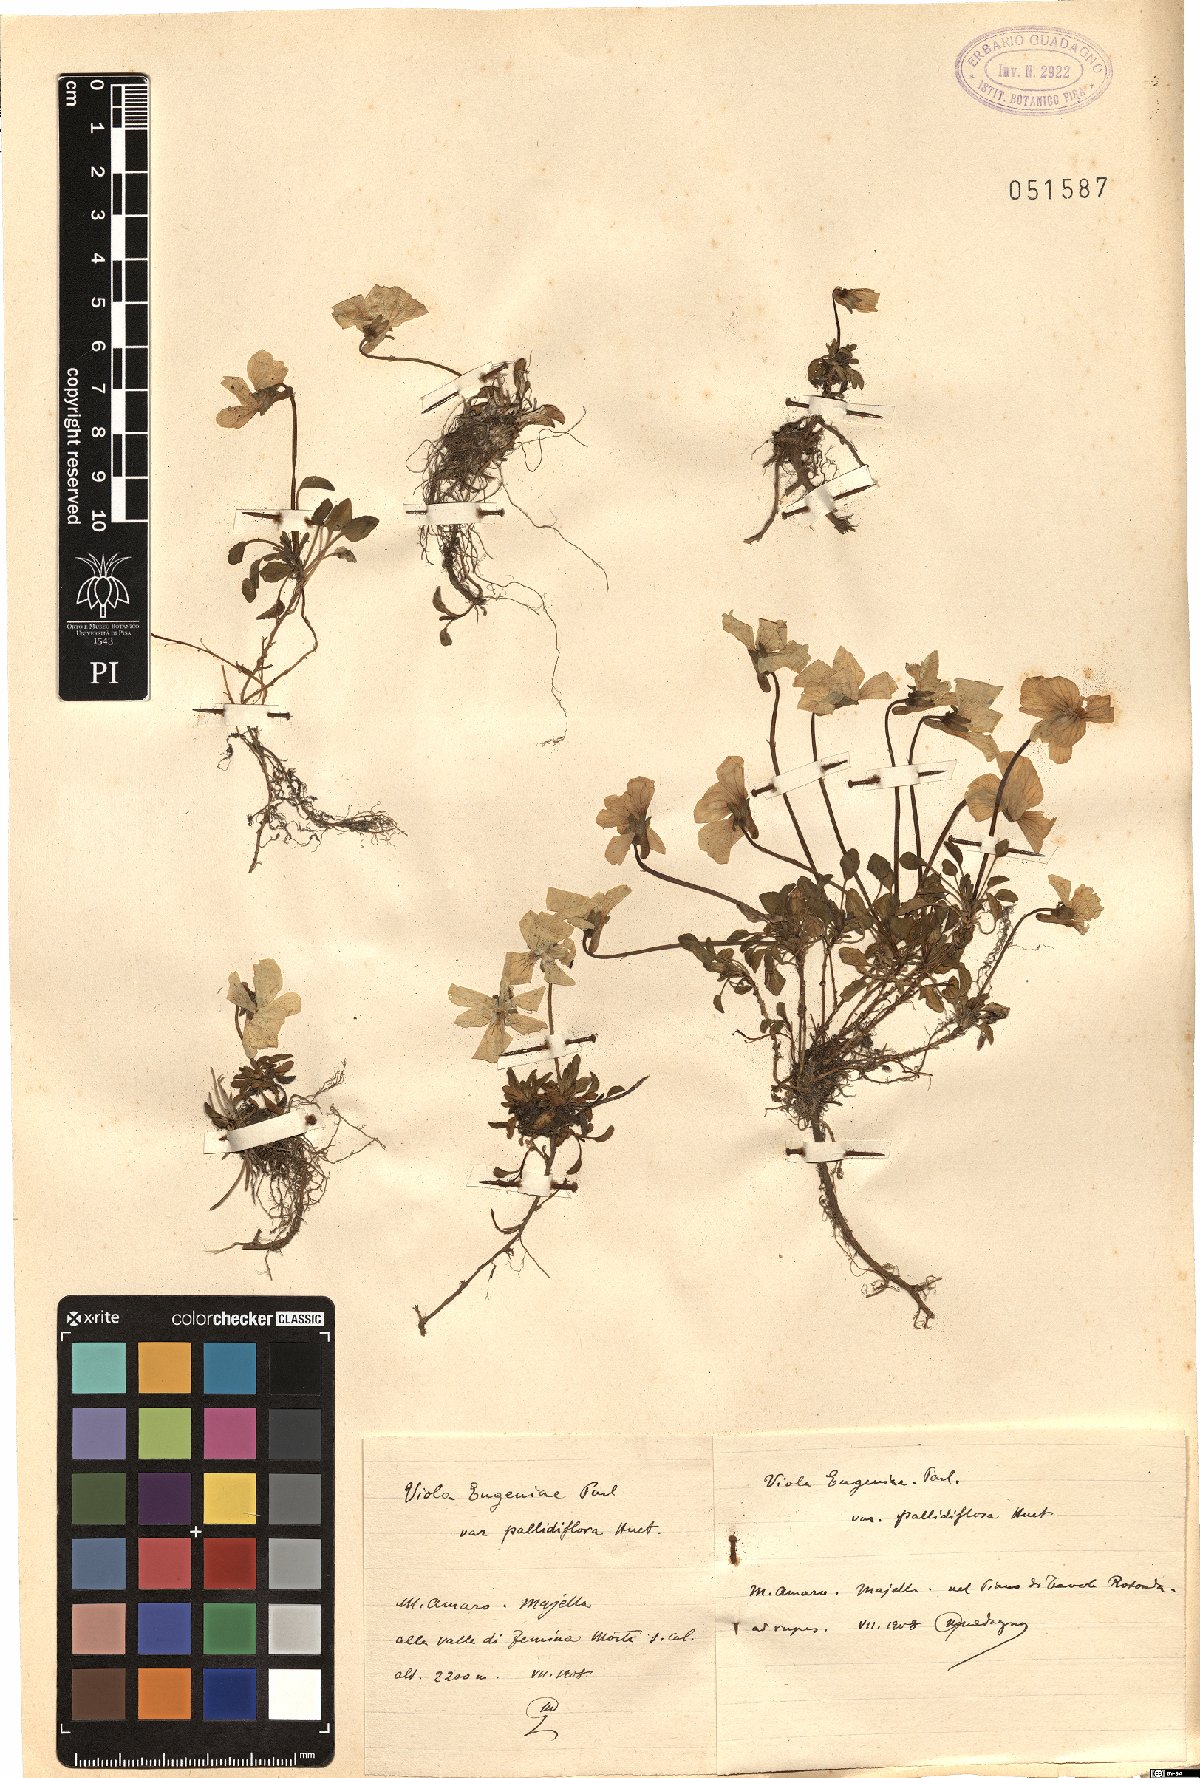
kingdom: Plantae
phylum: Tracheophyta
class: Magnoliopsida
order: Malpighiales
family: Violaceae
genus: Viola
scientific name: Viola eugeniae
